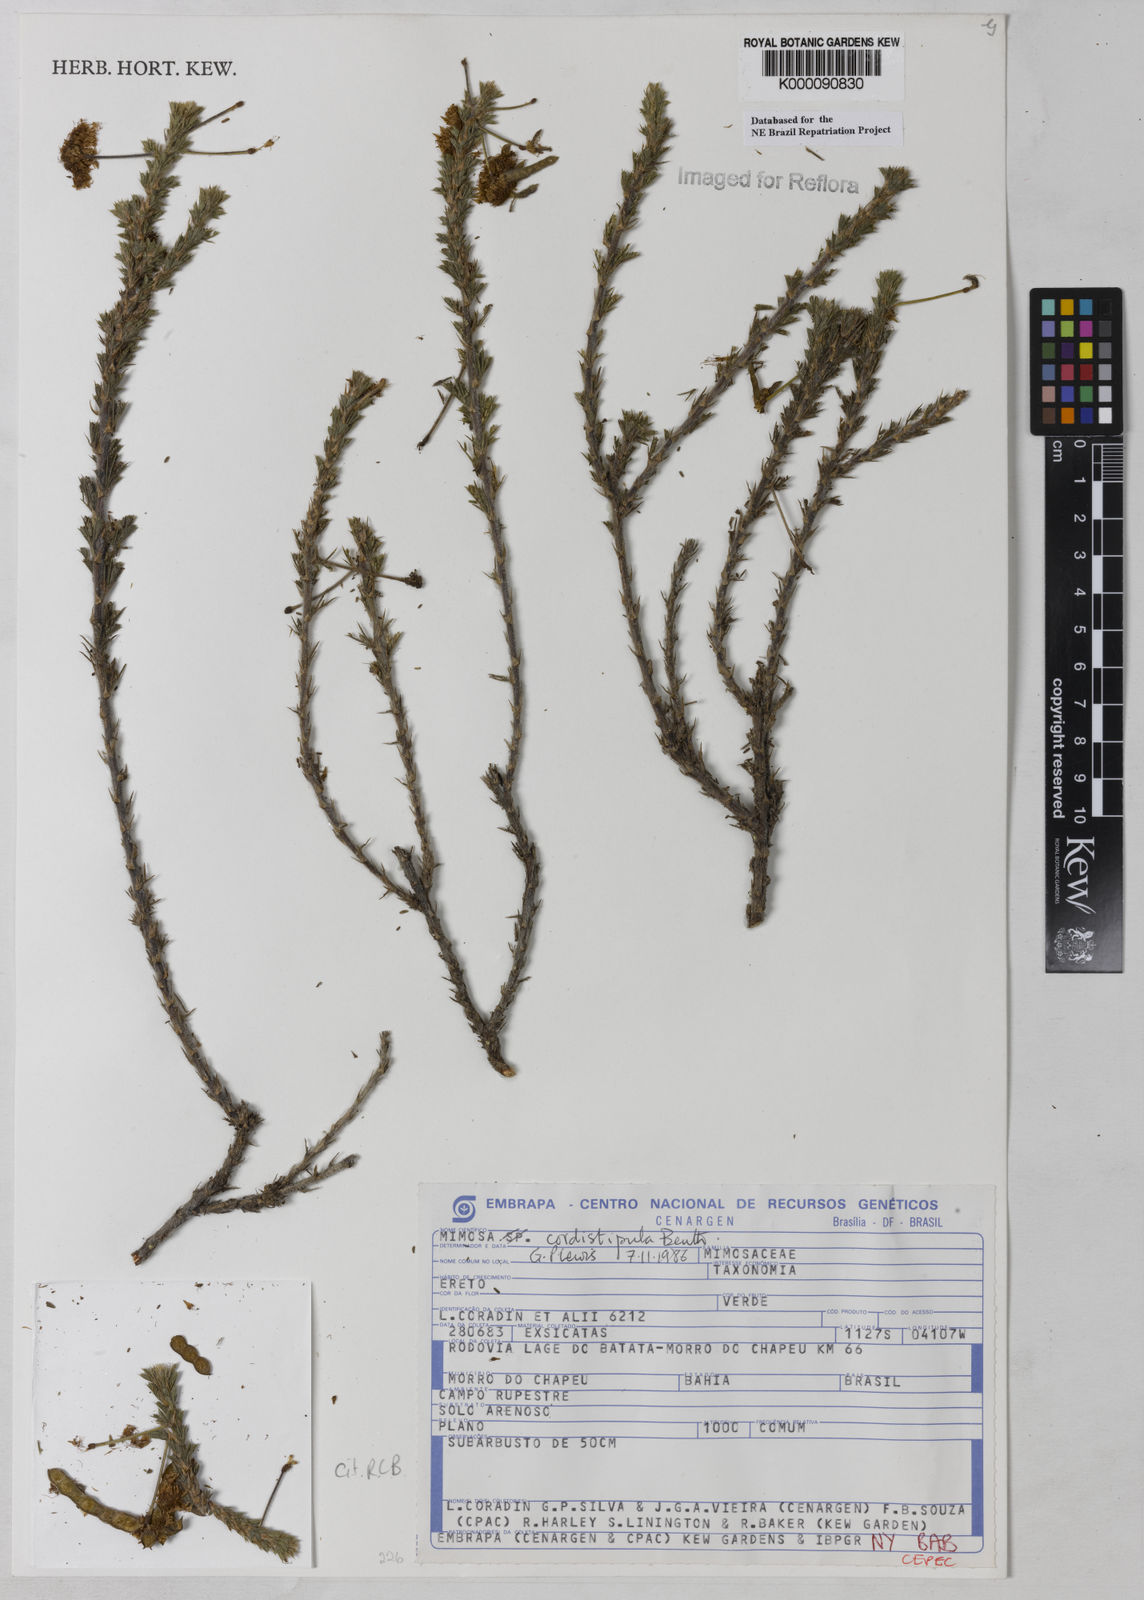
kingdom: Plantae
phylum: Tracheophyta
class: Magnoliopsida
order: Fabales
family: Fabaceae
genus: Mimosa
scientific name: Mimosa cordistipula
